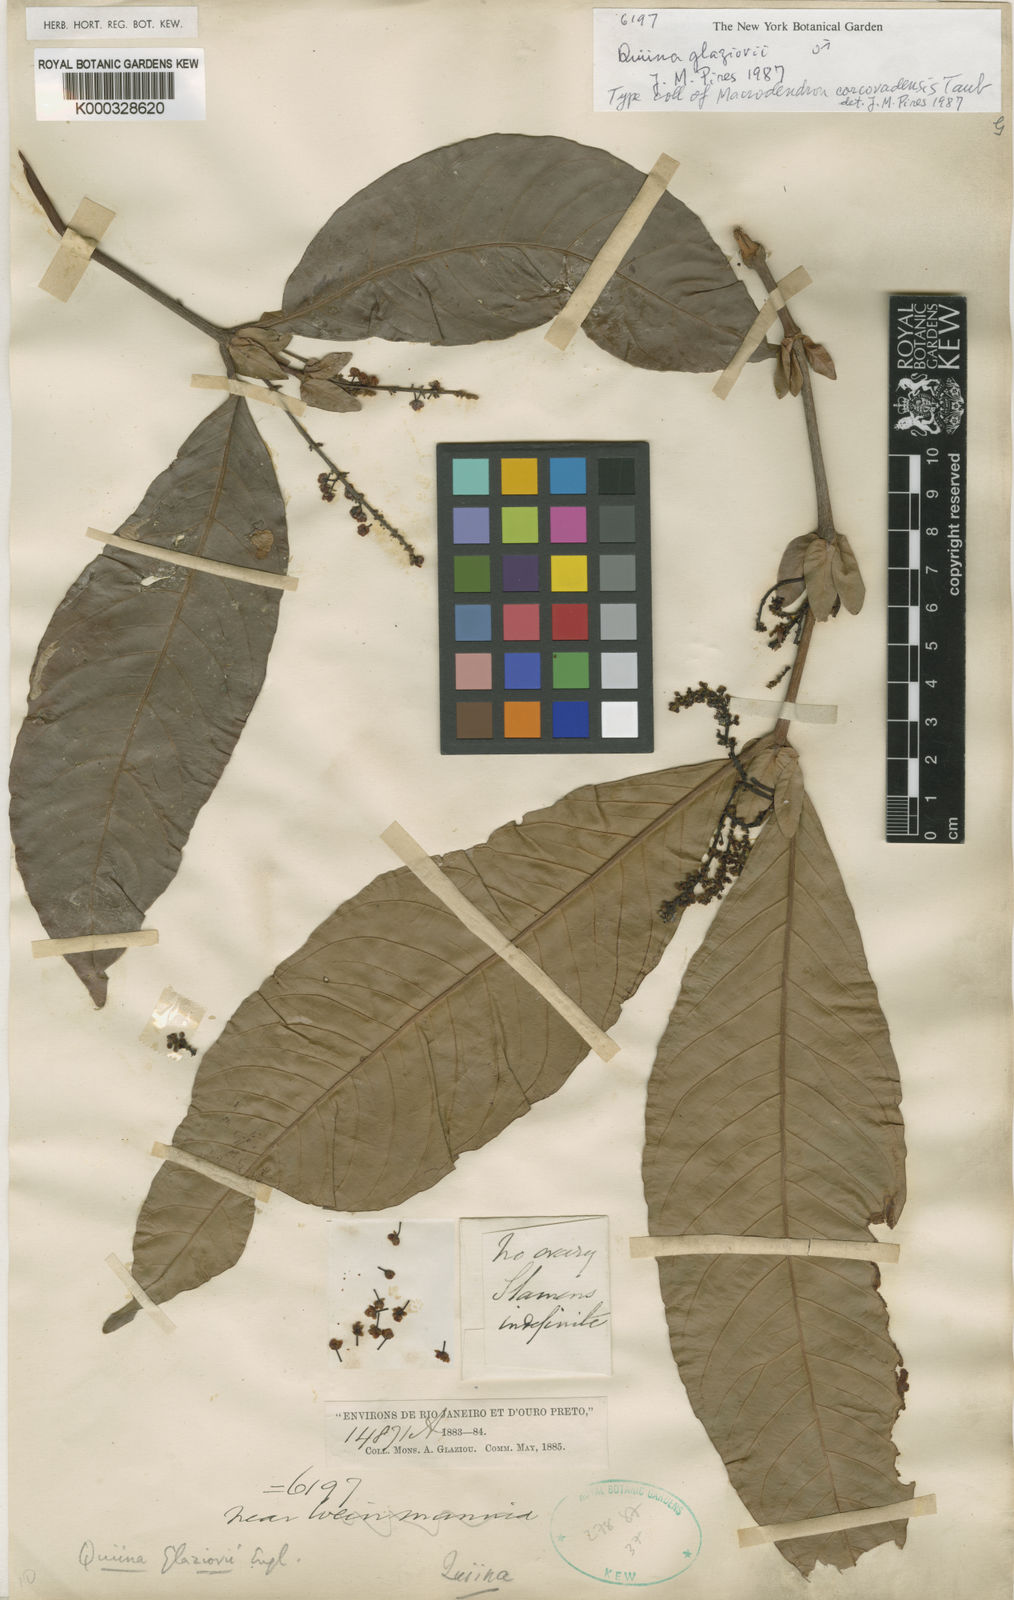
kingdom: Plantae
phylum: Tracheophyta
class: Magnoliopsida
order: Malpighiales
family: Quiinaceae
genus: Quiina
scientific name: Quiina glaziovii
